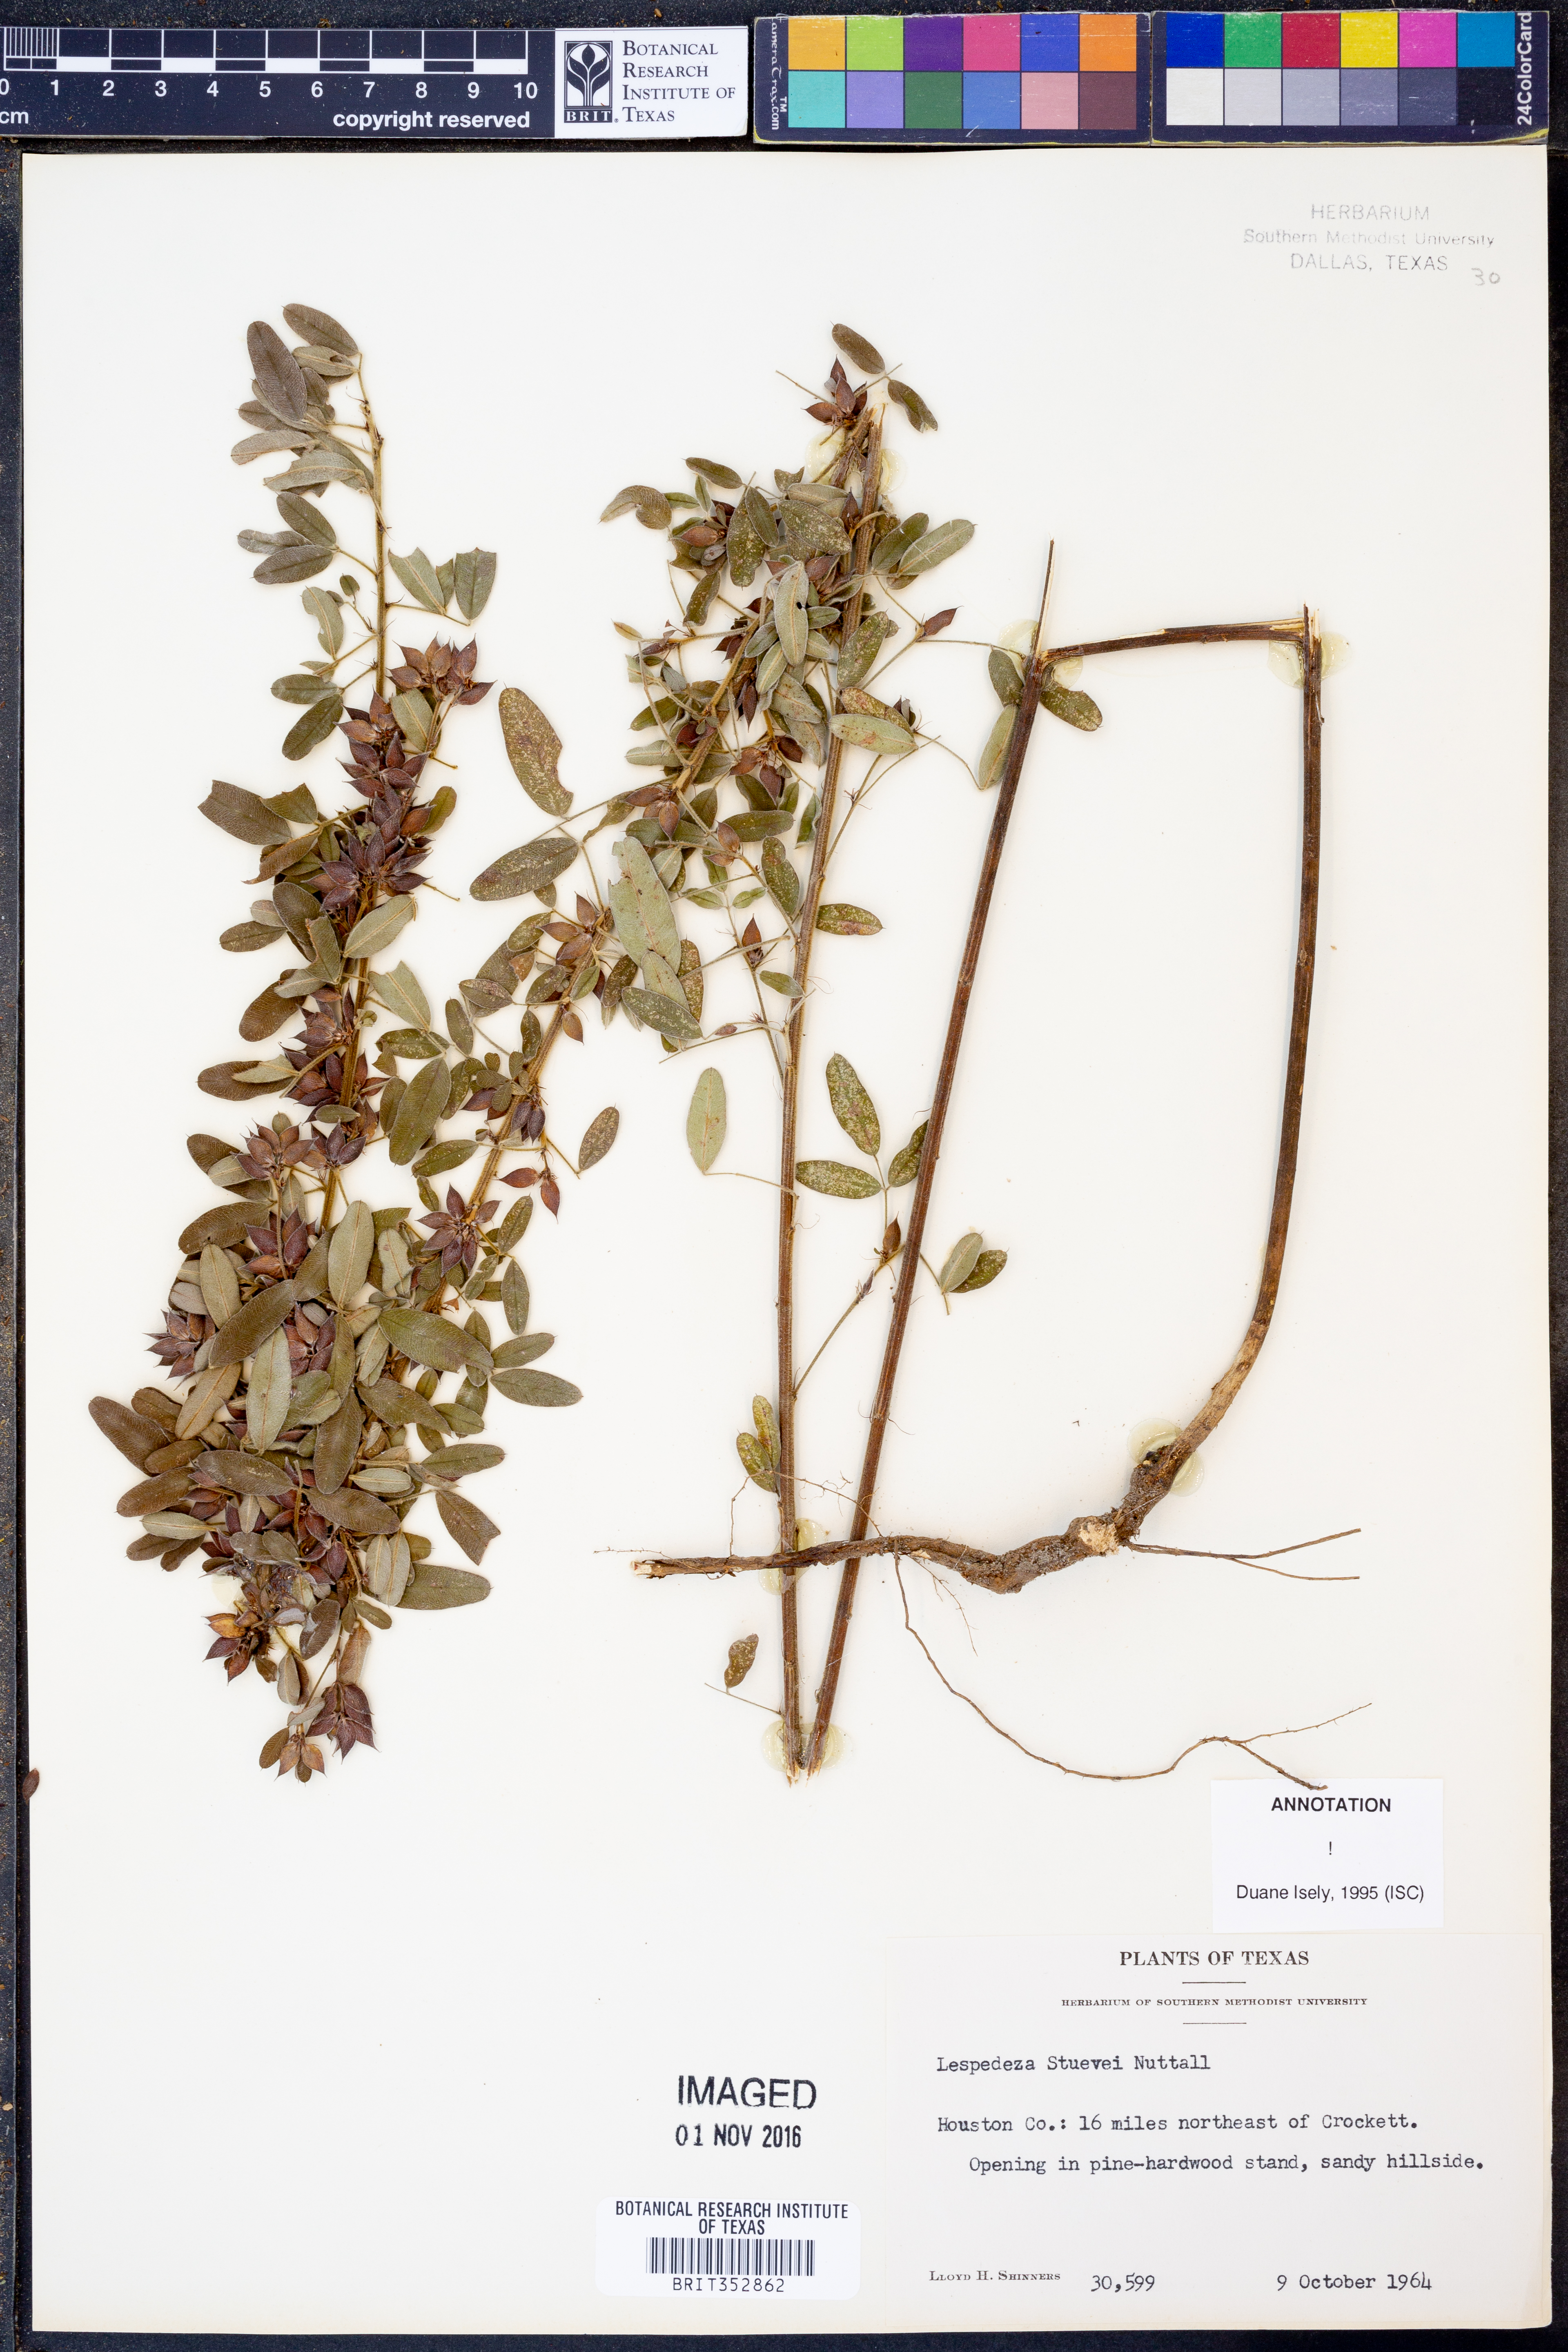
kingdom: Plantae
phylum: Tracheophyta
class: Magnoliopsida
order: Fabales
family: Fabaceae
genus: Lespedeza
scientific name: Lespedeza stuevei
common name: Tall bush-clover
